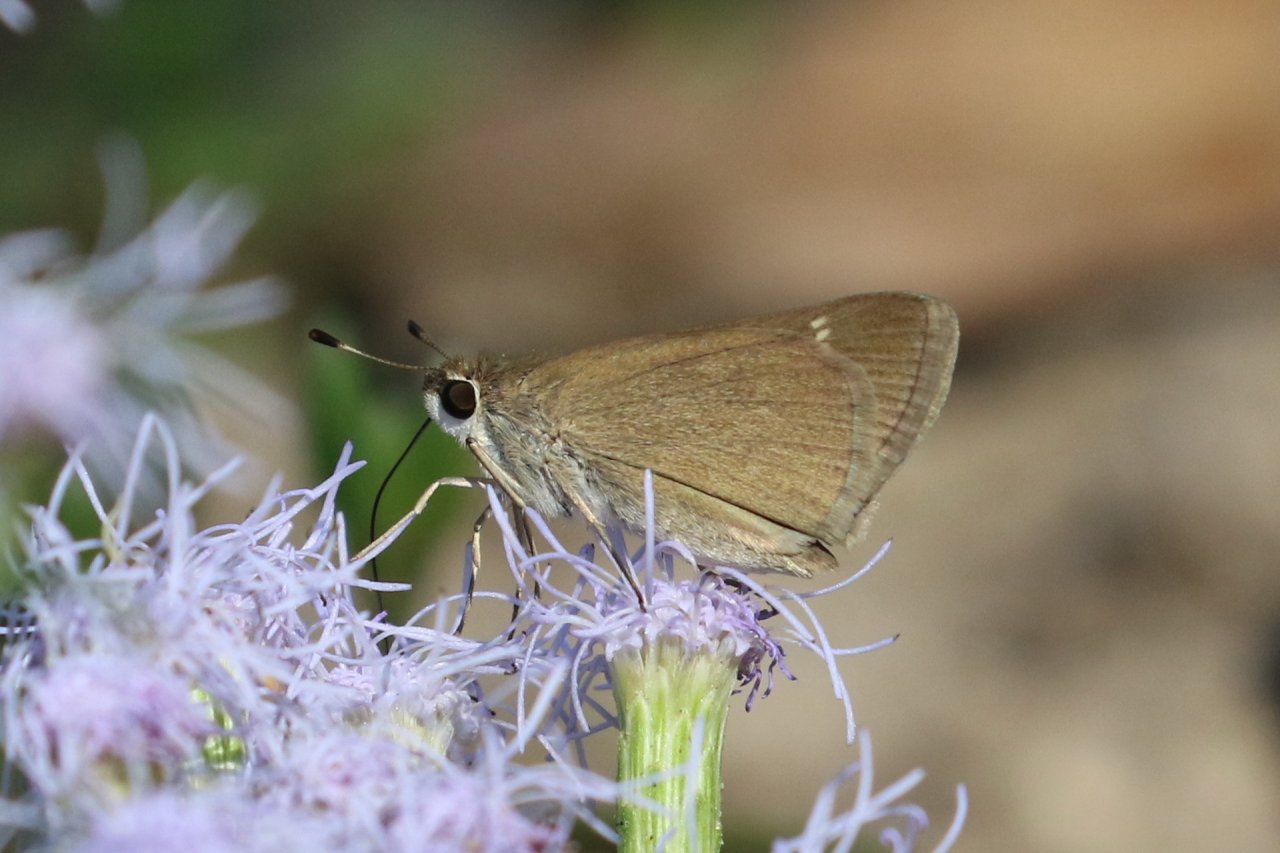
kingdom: Animalia
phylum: Arthropoda
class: Insecta
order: Lepidoptera
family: Hesperiidae
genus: Nastra
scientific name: Nastra julia
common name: Julia's Skipper
